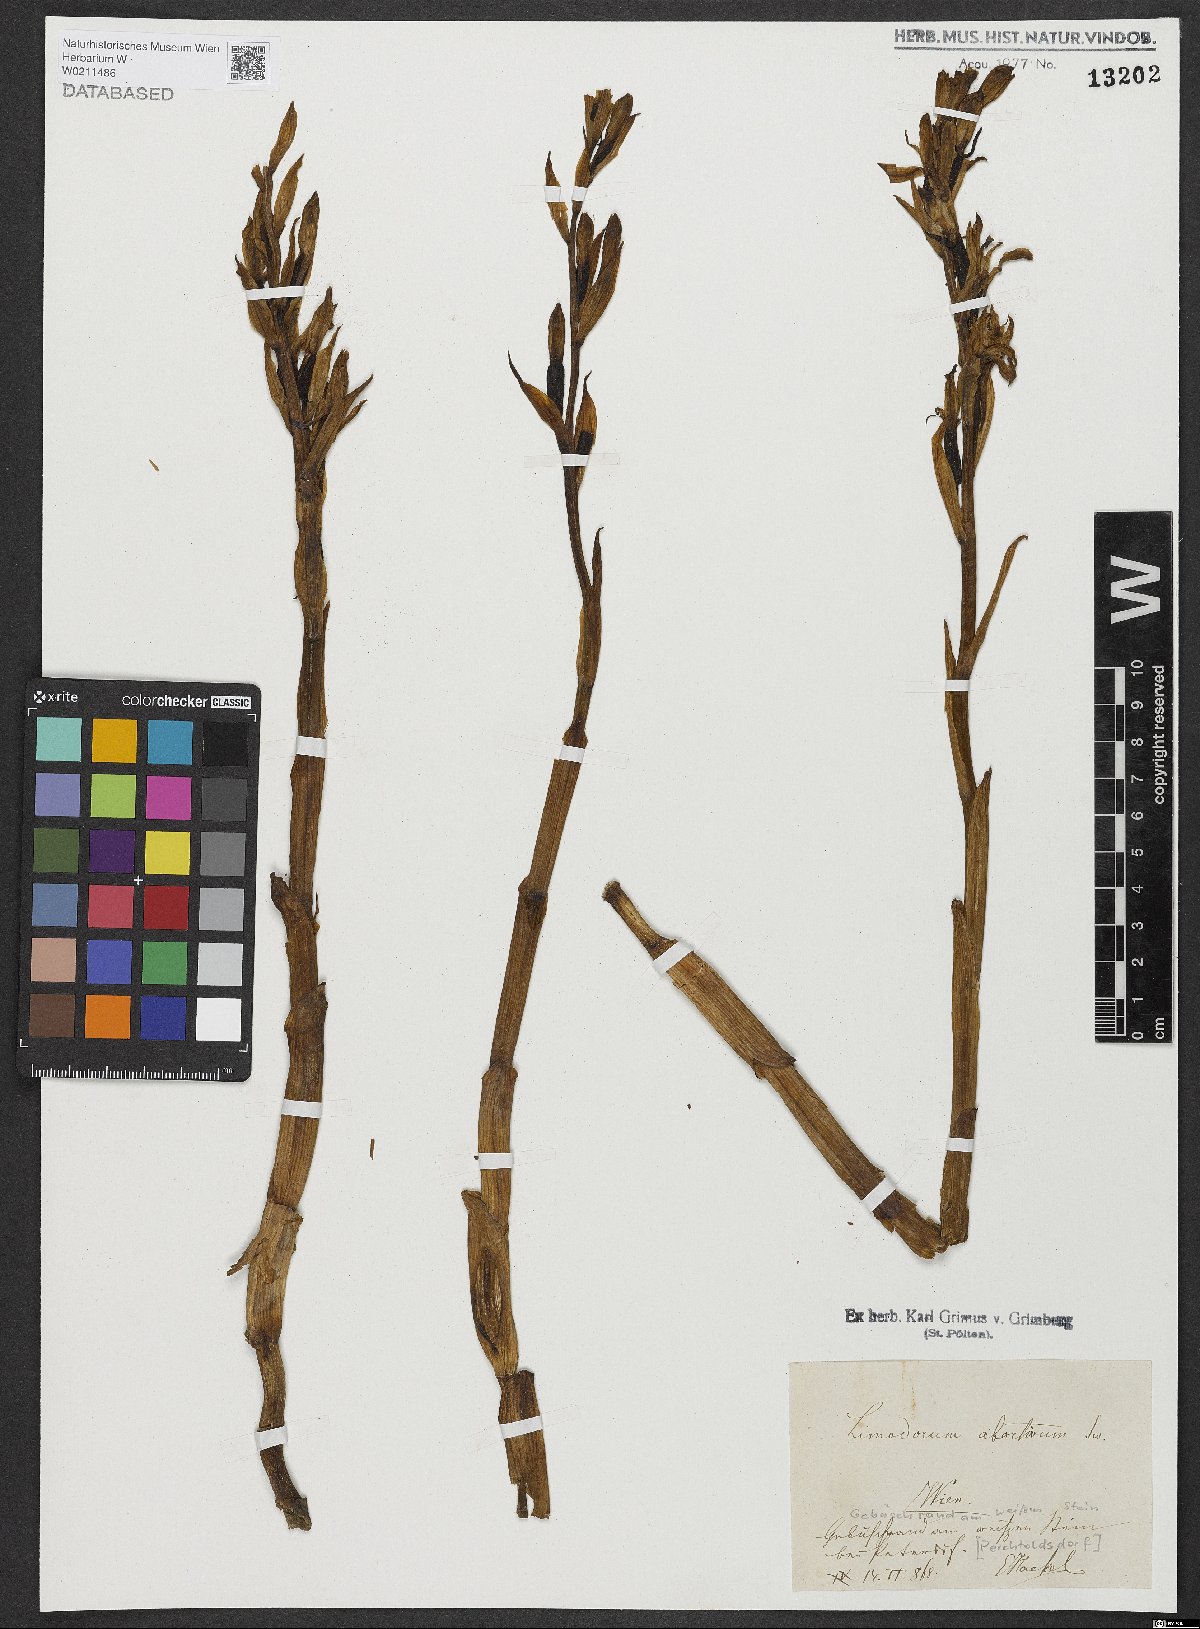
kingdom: Plantae
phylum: Tracheophyta
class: Liliopsida
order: Asparagales
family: Orchidaceae
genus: Limodorum
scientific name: Limodorum abortivum
